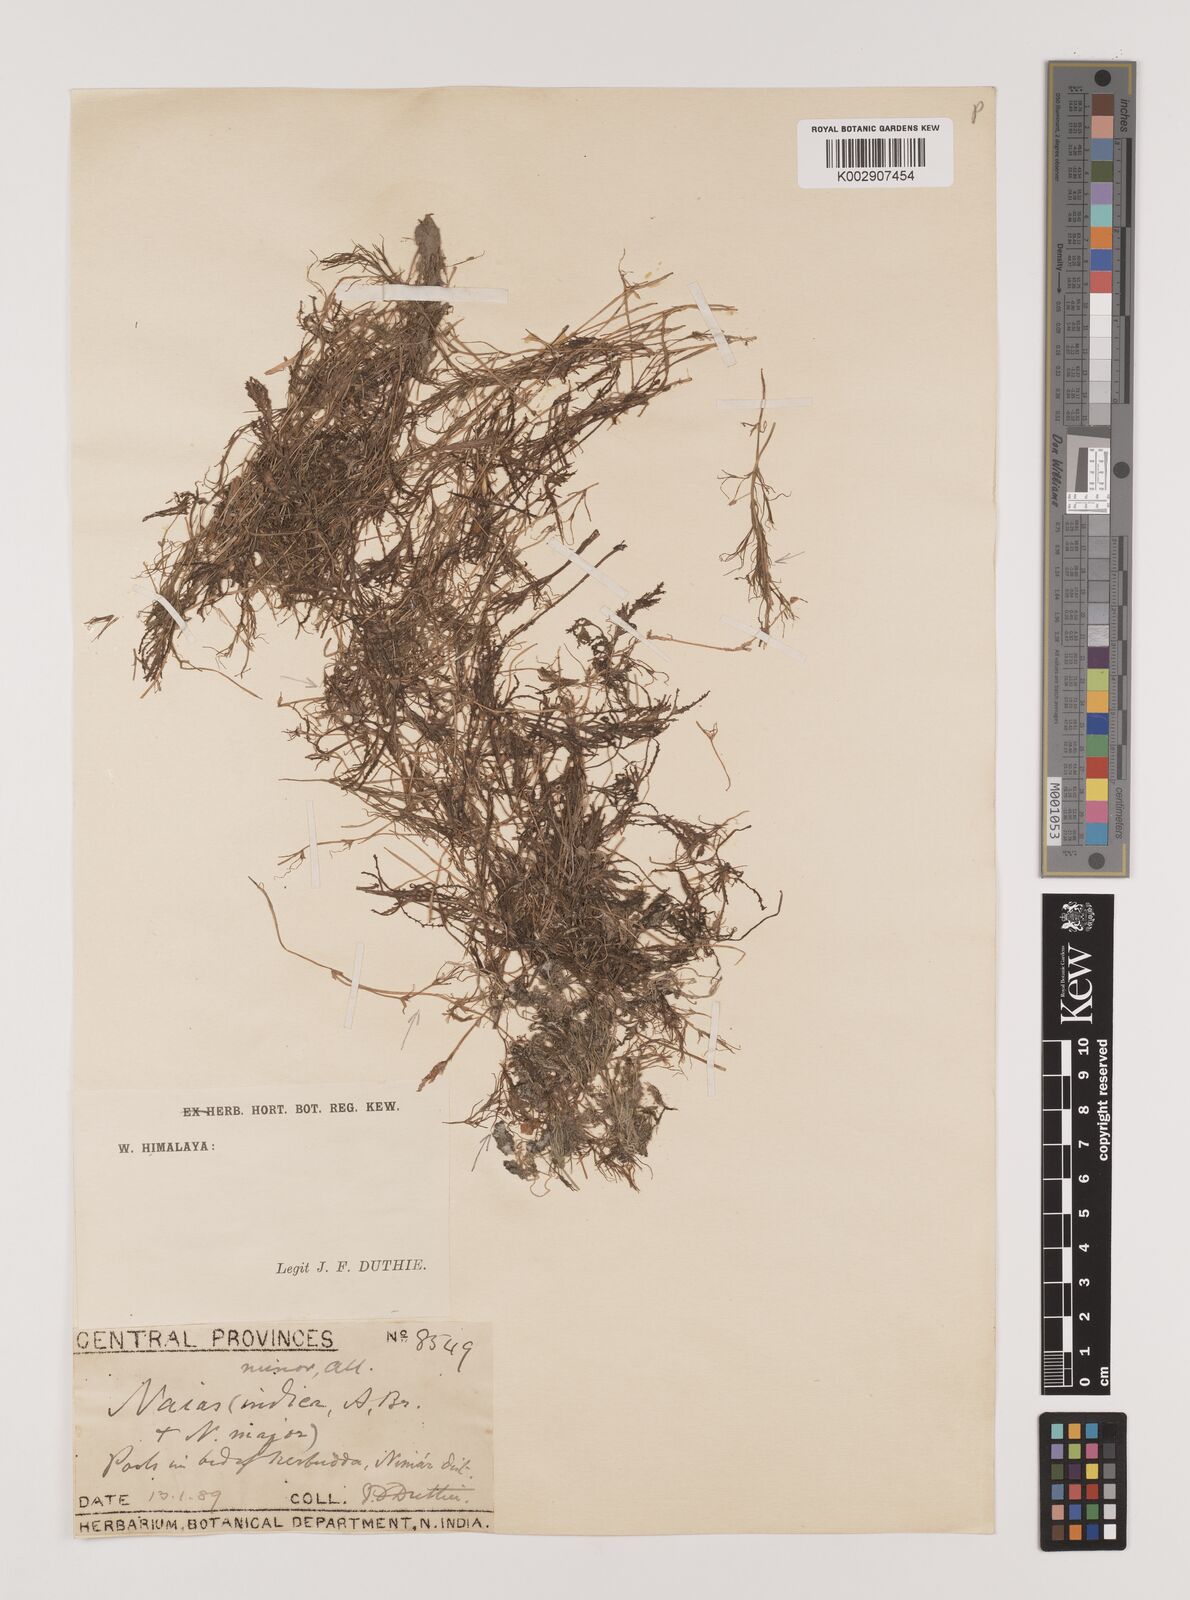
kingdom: Plantae
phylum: Tracheophyta
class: Liliopsida
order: Alismatales
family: Hydrocharitaceae
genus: Najas
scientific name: Najas marina
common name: Holly-leaved naiad
